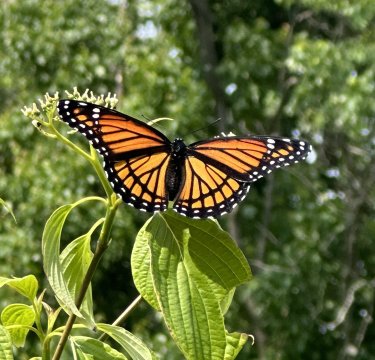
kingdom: Animalia
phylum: Arthropoda
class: Insecta
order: Lepidoptera
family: Nymphalidae
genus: Limenitis
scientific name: Limenitis archippus
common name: Viceroy
